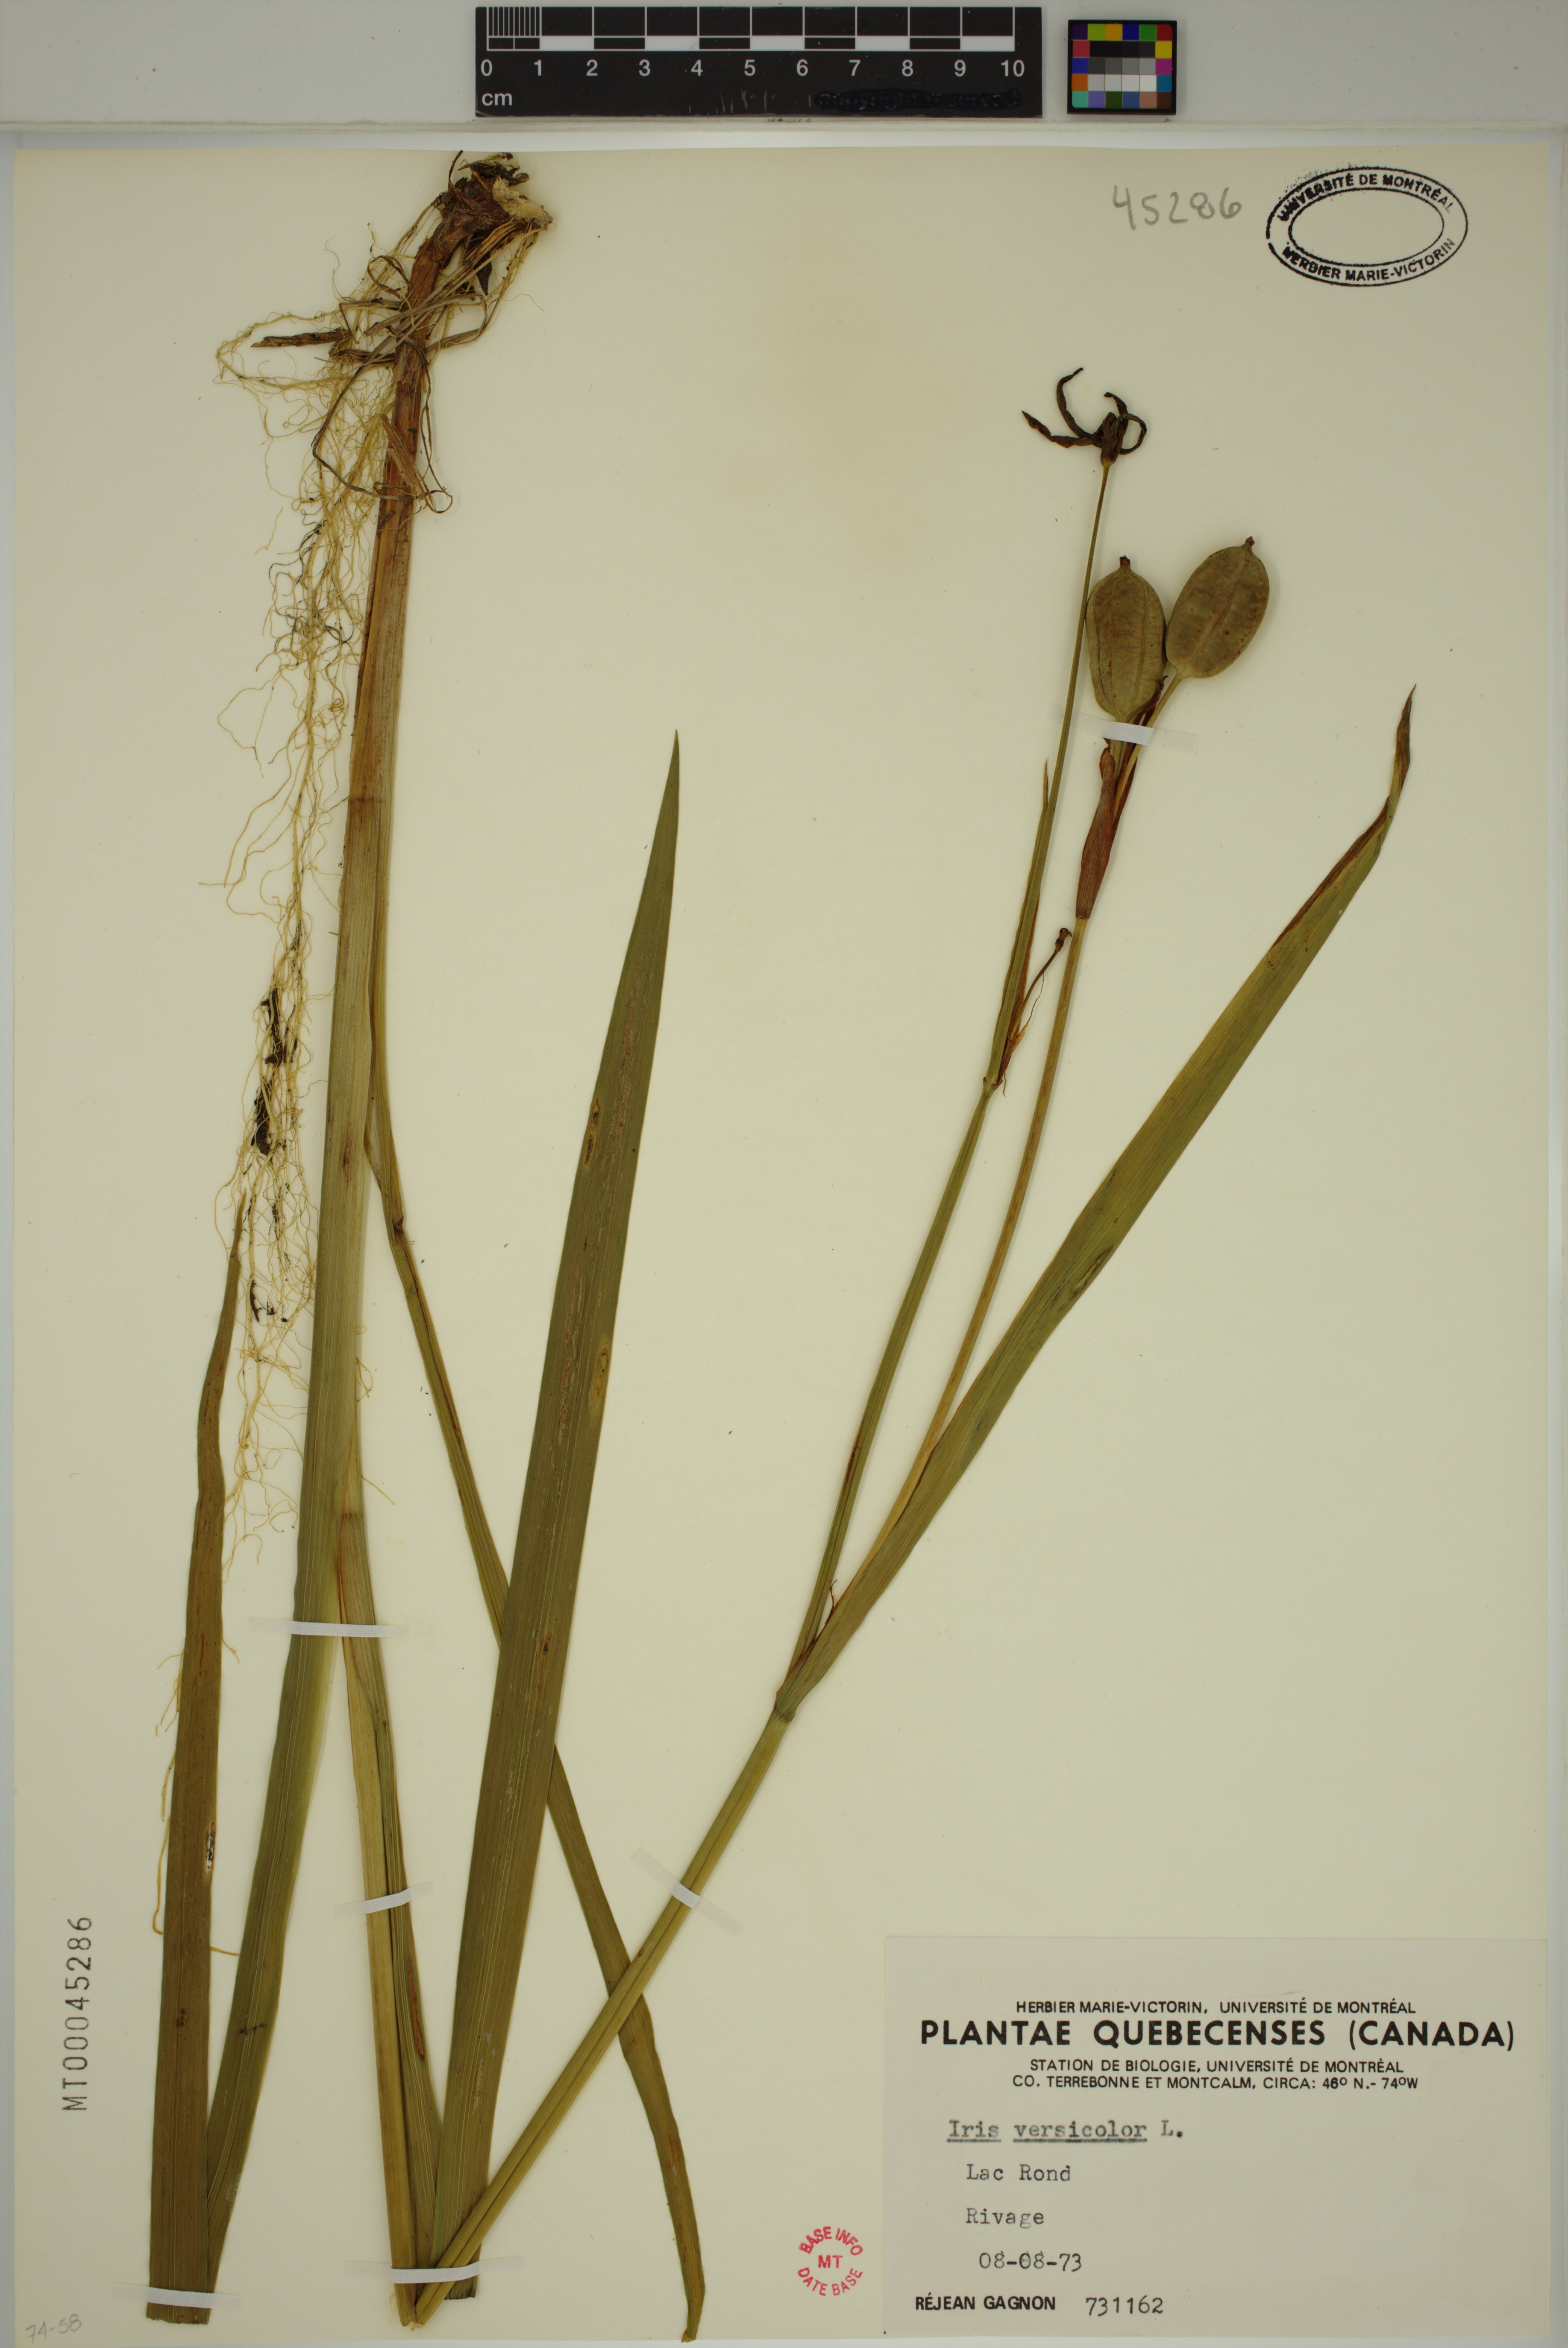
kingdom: Plantae
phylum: Tracheophyta
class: Liliopsida
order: Asparagales
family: Iridaceae
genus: Iris
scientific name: Iris versicolor
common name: Purple iris
